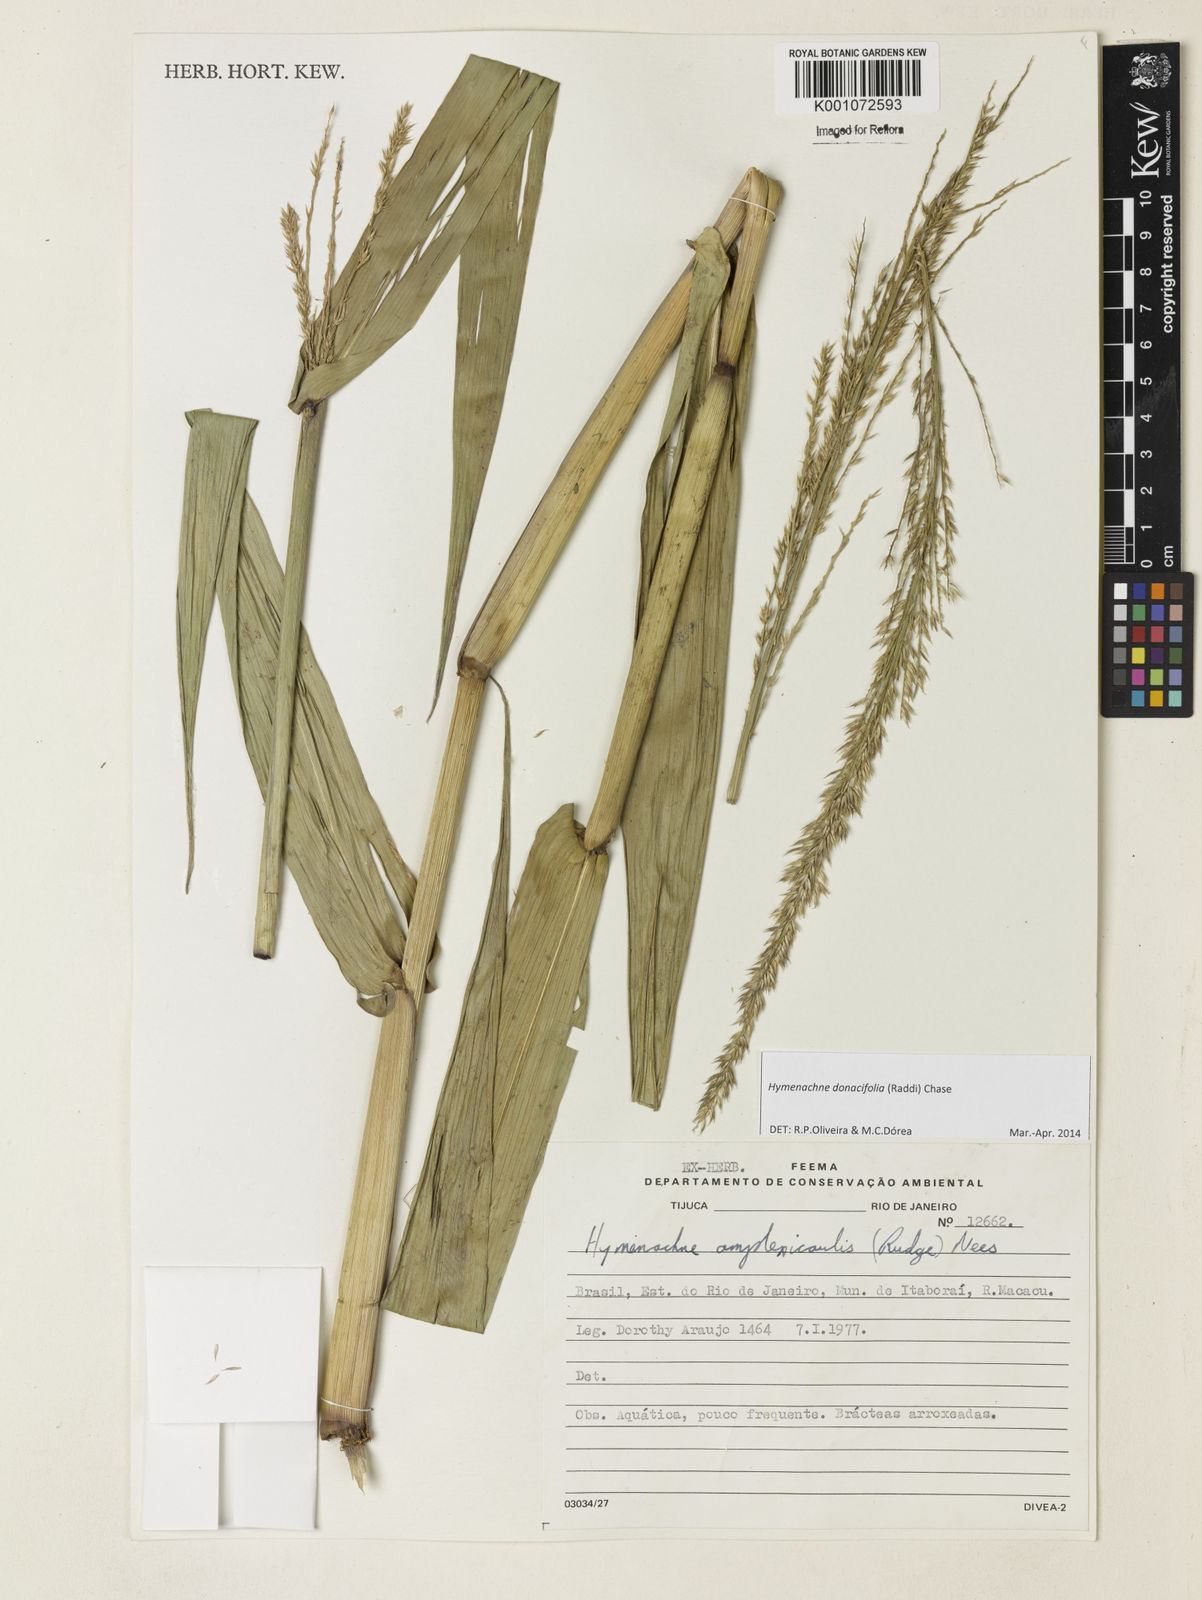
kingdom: Plantae
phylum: Tracheophyta
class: Liliopsida
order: Poales
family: Poaceae
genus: Hymenachne
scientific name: Hymenachne donacifolia
